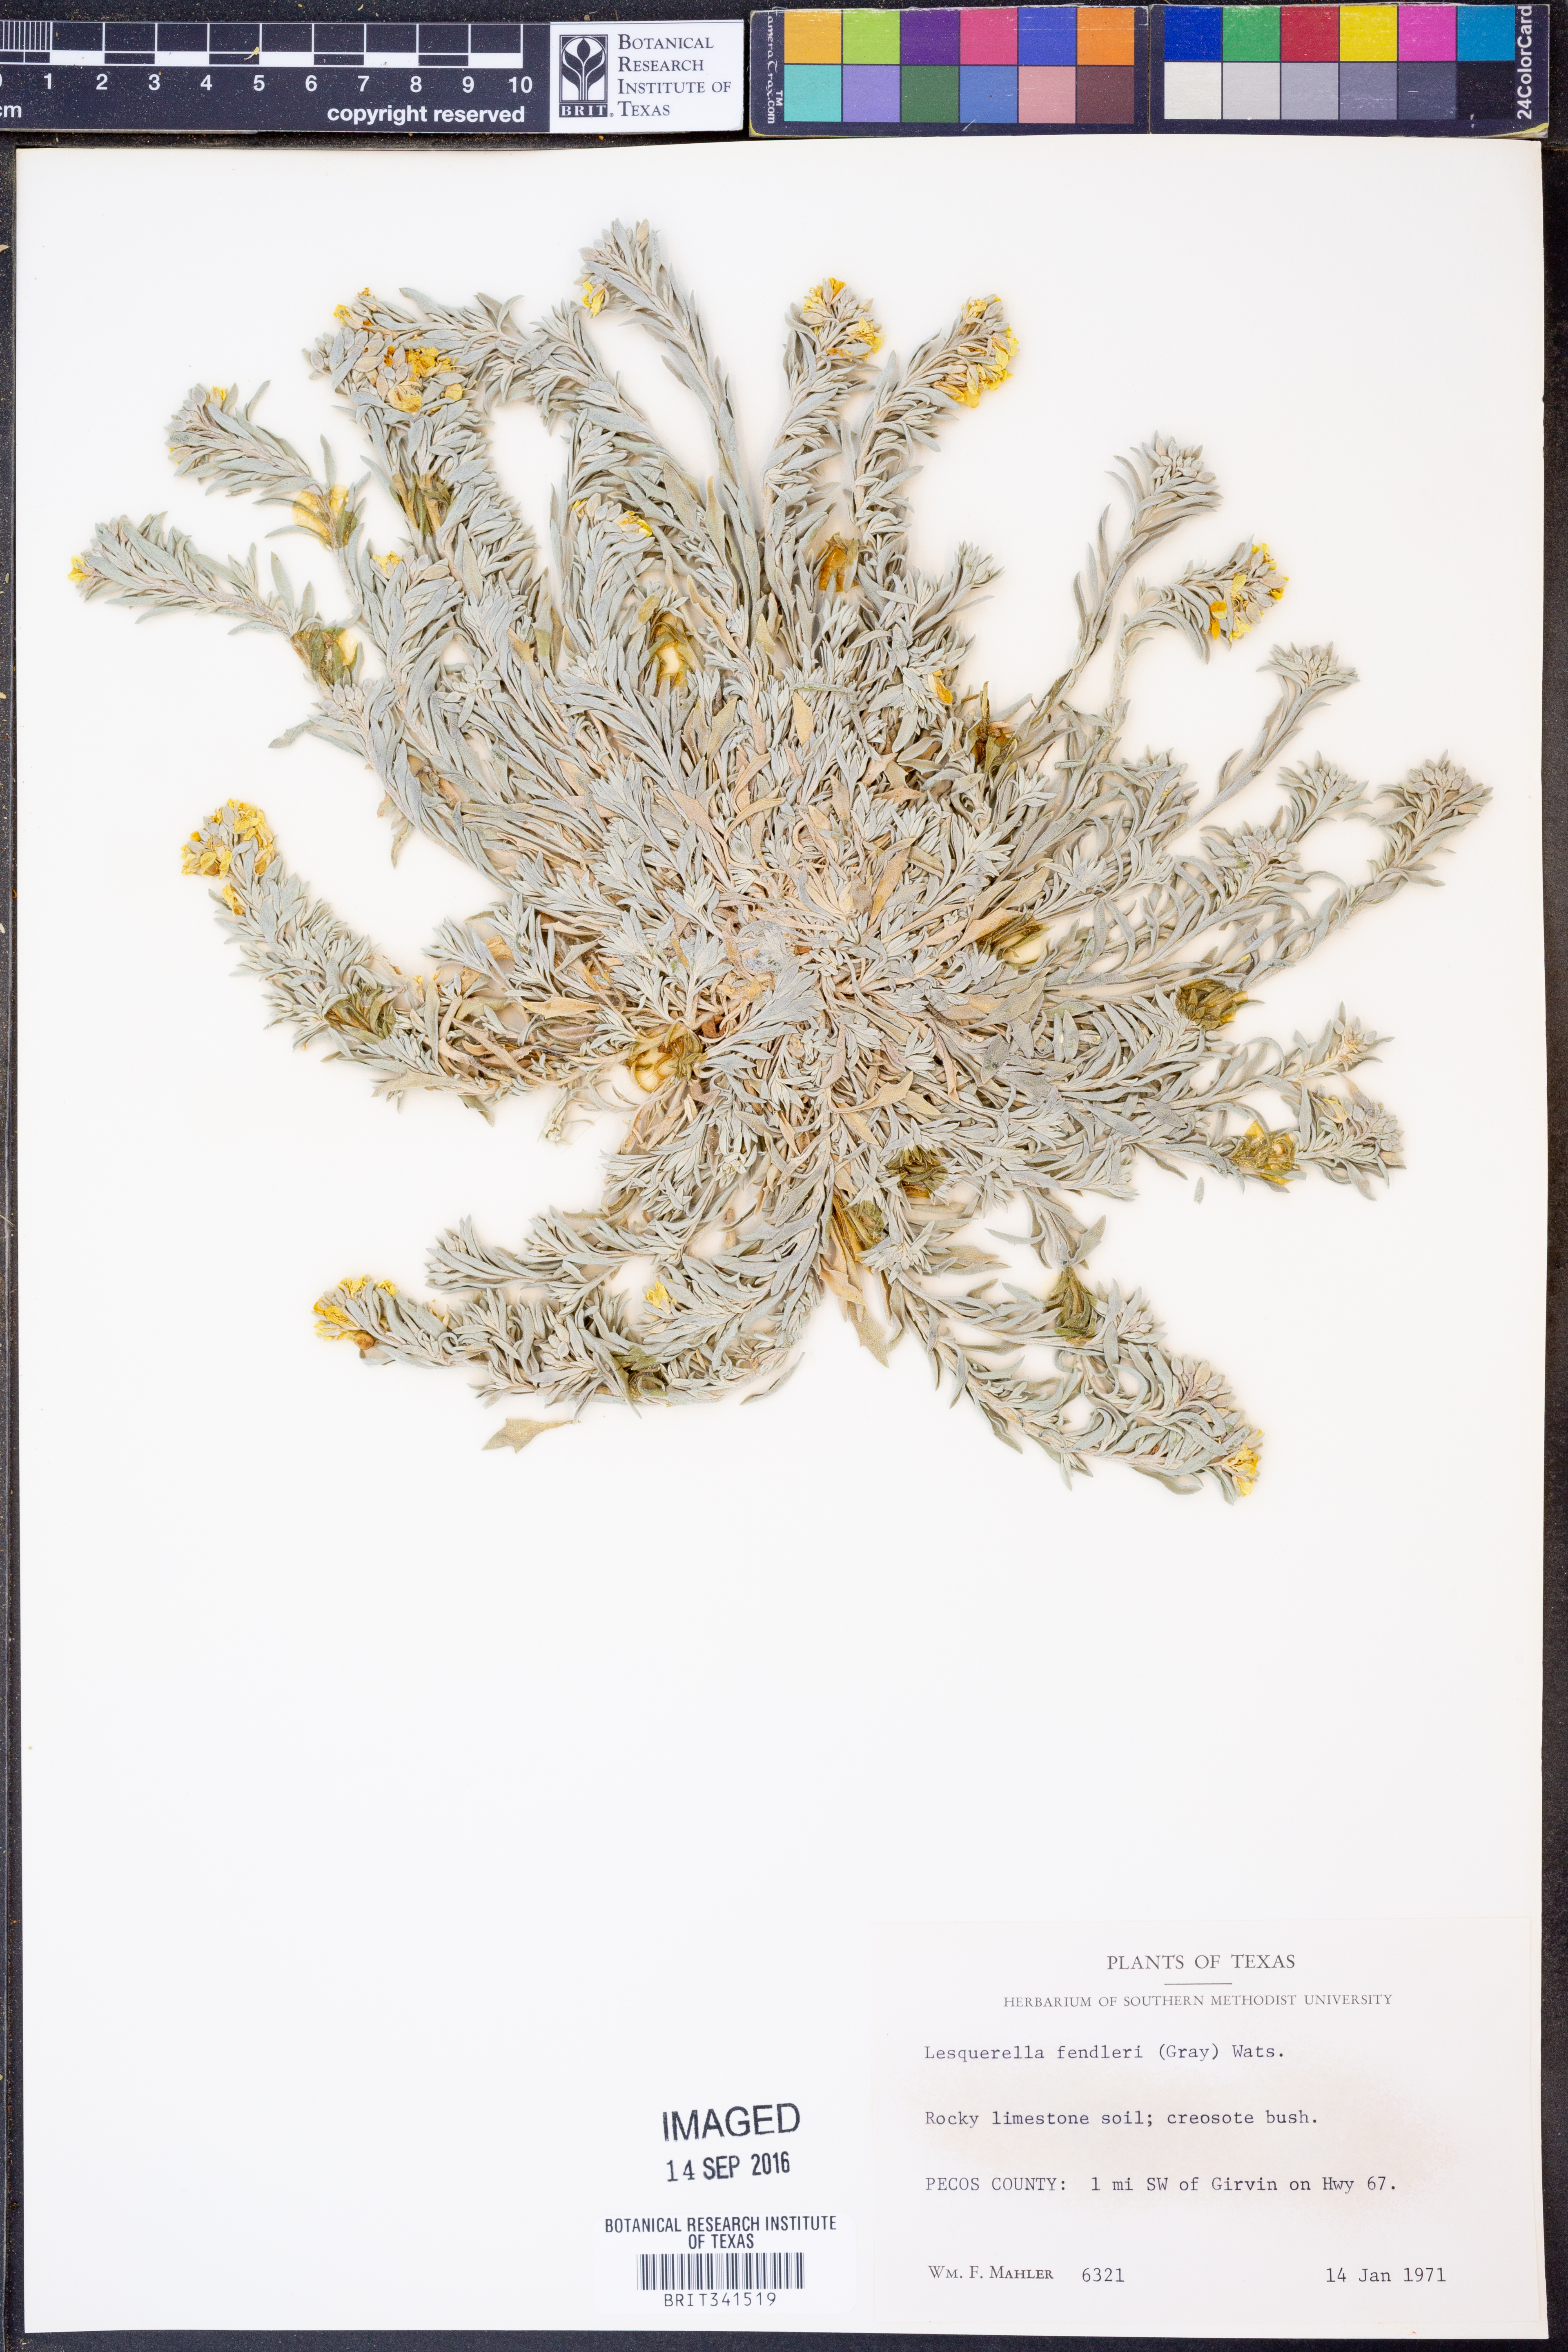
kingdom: Plantae
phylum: Tracheophyta
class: Magnoliopsida
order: Brassicales
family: Brassicaceae
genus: Physaria
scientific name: Physaria fendleri
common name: Fendler's bladderpod
